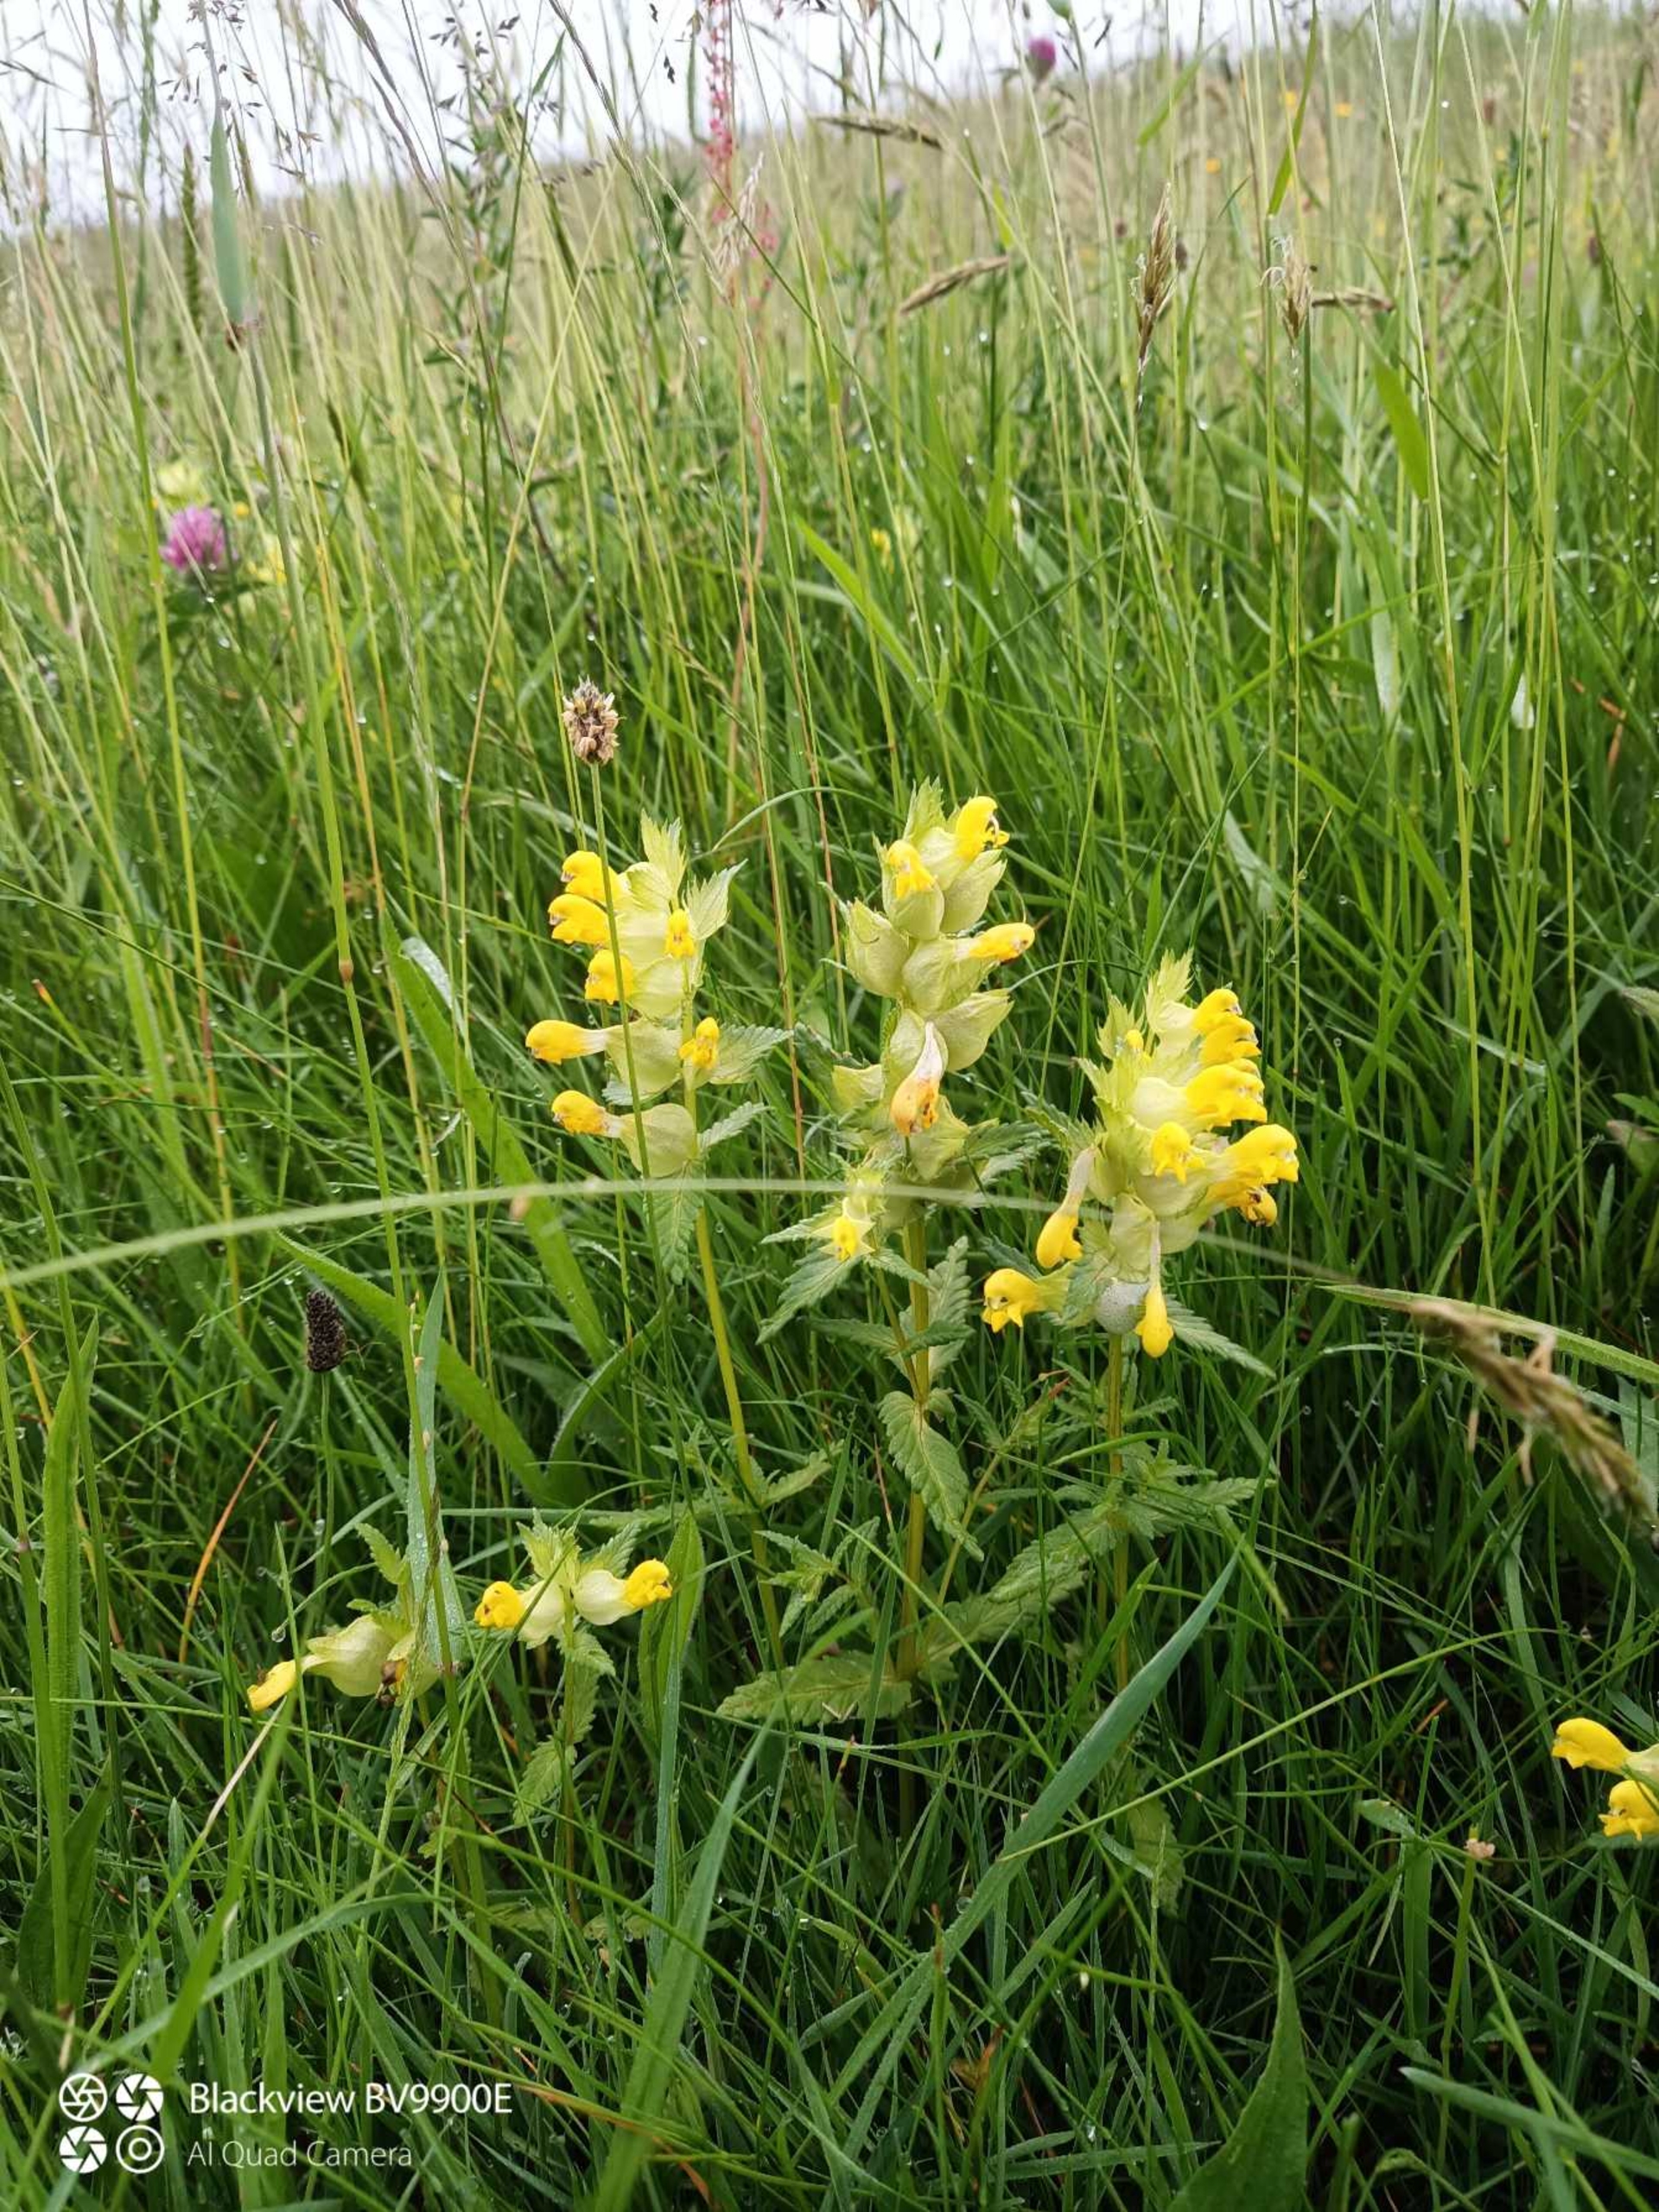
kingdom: Plantae
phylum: Tracheophyta
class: Magnoliopsida
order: Lamiales
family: Orobanchaceae
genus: Rhinanthus
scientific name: Rhinanthus
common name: Stor skjaller
